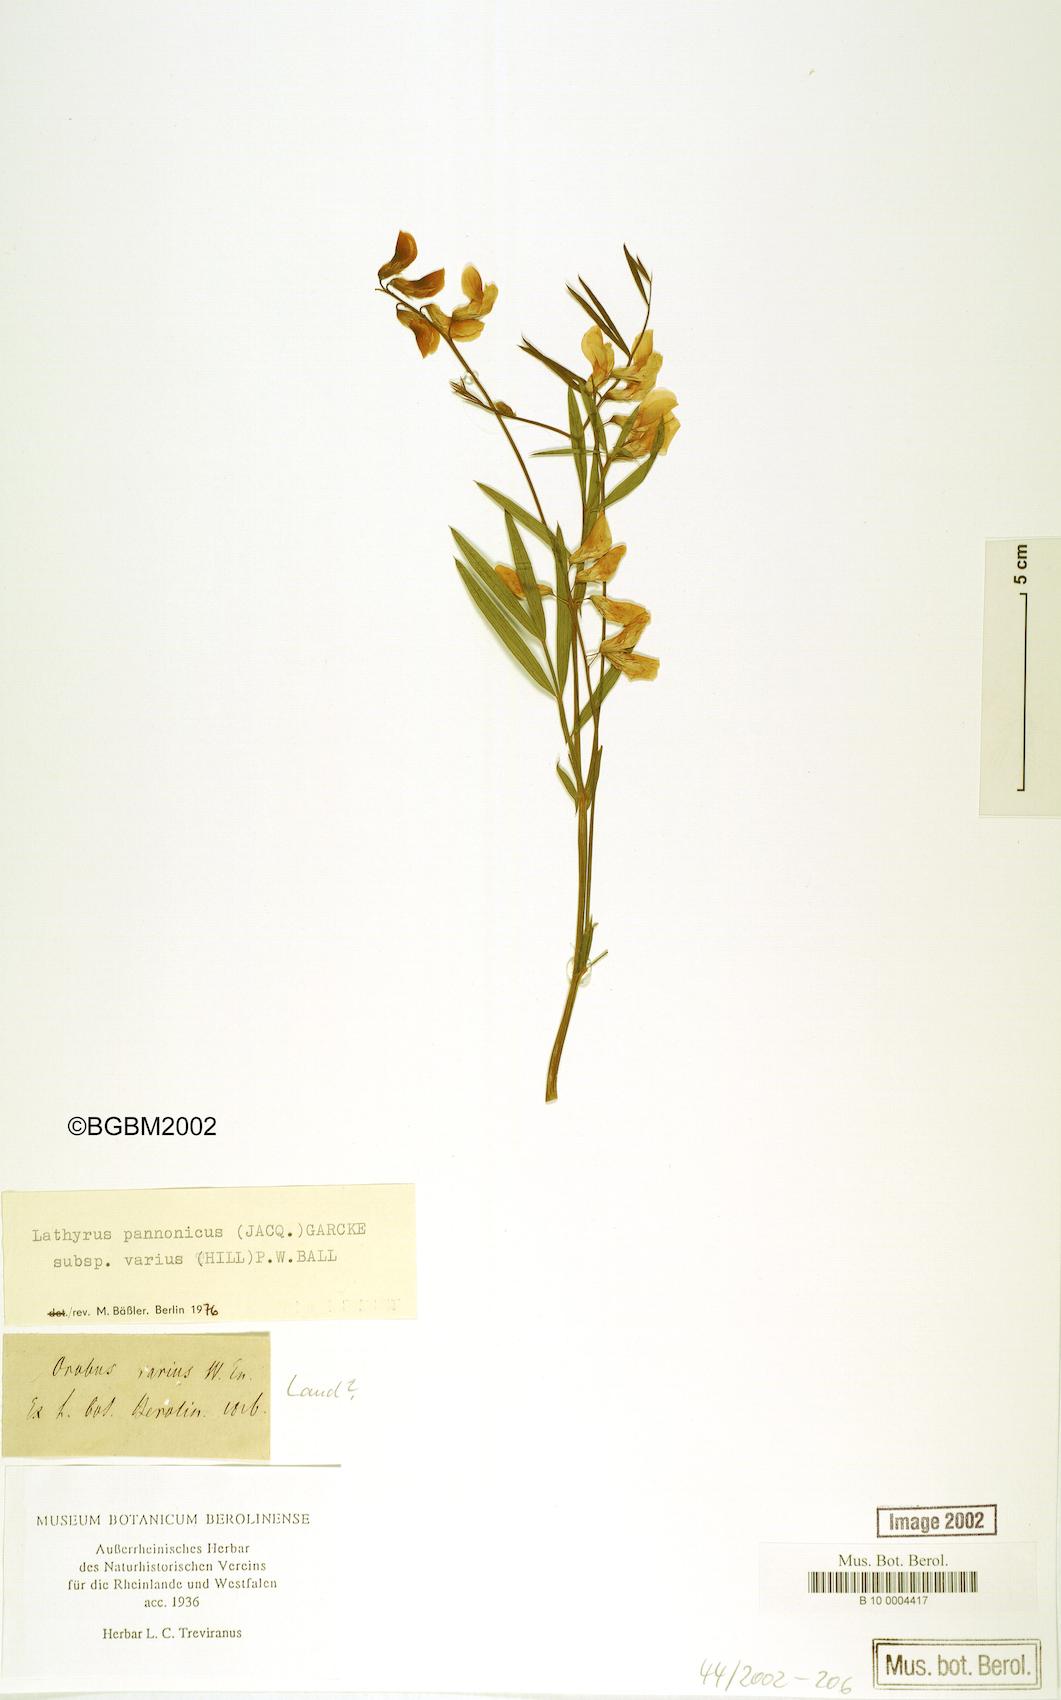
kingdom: Plantae
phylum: Tracheophyta
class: Magnoliopsida
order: Fabales
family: Fabaceae
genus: Lathyrus
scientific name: Lathyrus pannonicus
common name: Pea
